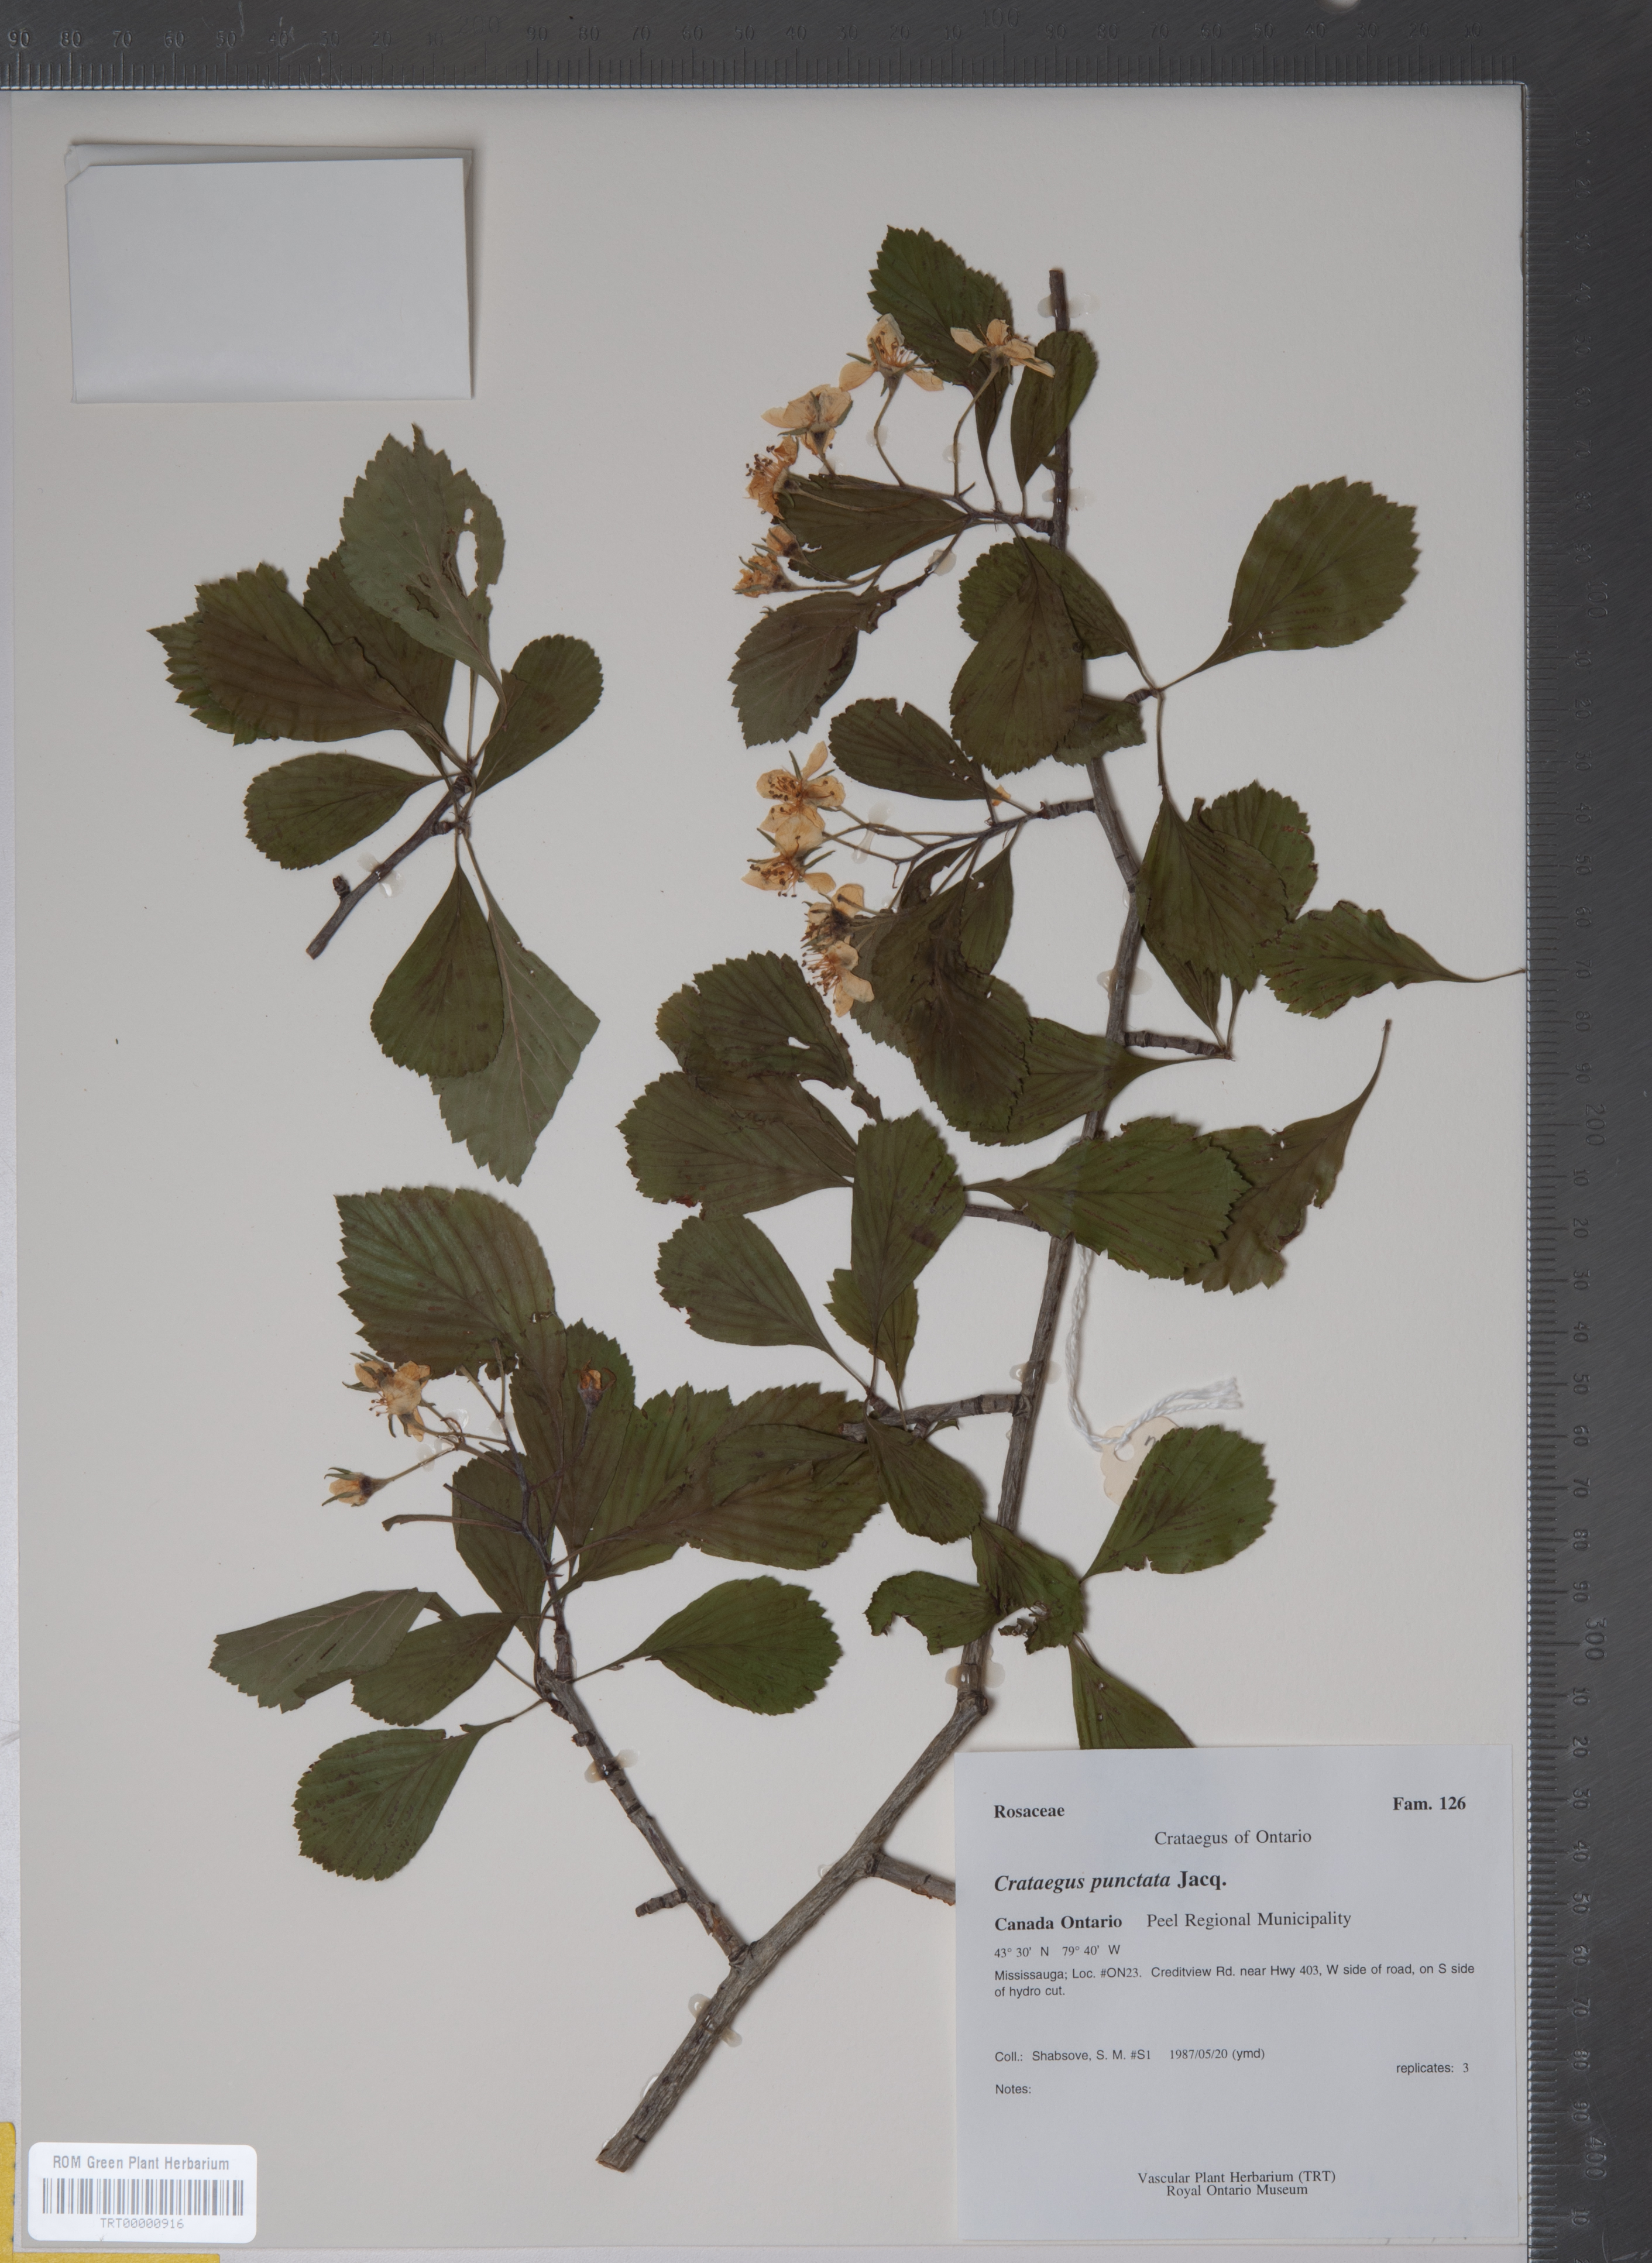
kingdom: Plantae
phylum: Tracheophyta
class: Magnoliopsida
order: Rosales
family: Rosaceae
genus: Crataegus
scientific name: Crataegus punctata
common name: Dotted hawthorn
